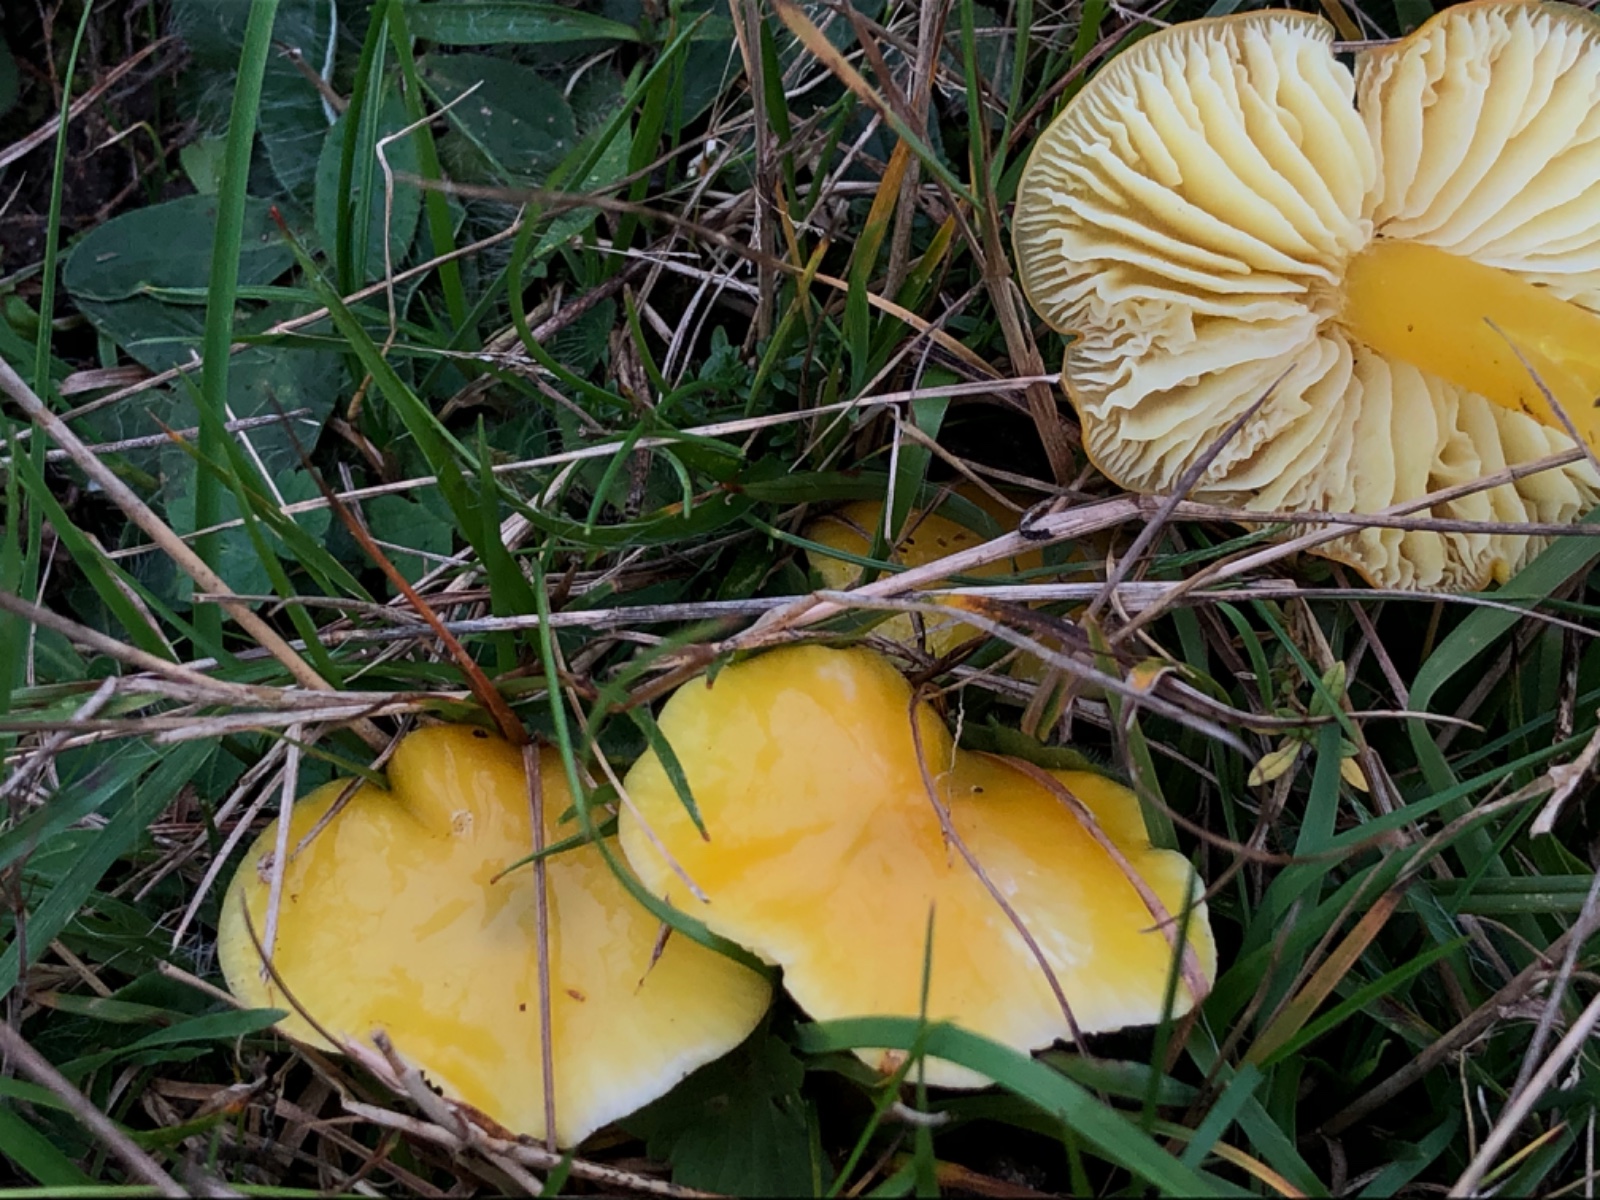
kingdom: Fungi
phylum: Basidiomycota
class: Agaricomycetes
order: Agaricales
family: Hygrophoraceae
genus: Hygrocybe
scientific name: Hygrocybe chlorophana
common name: gul vokshat
